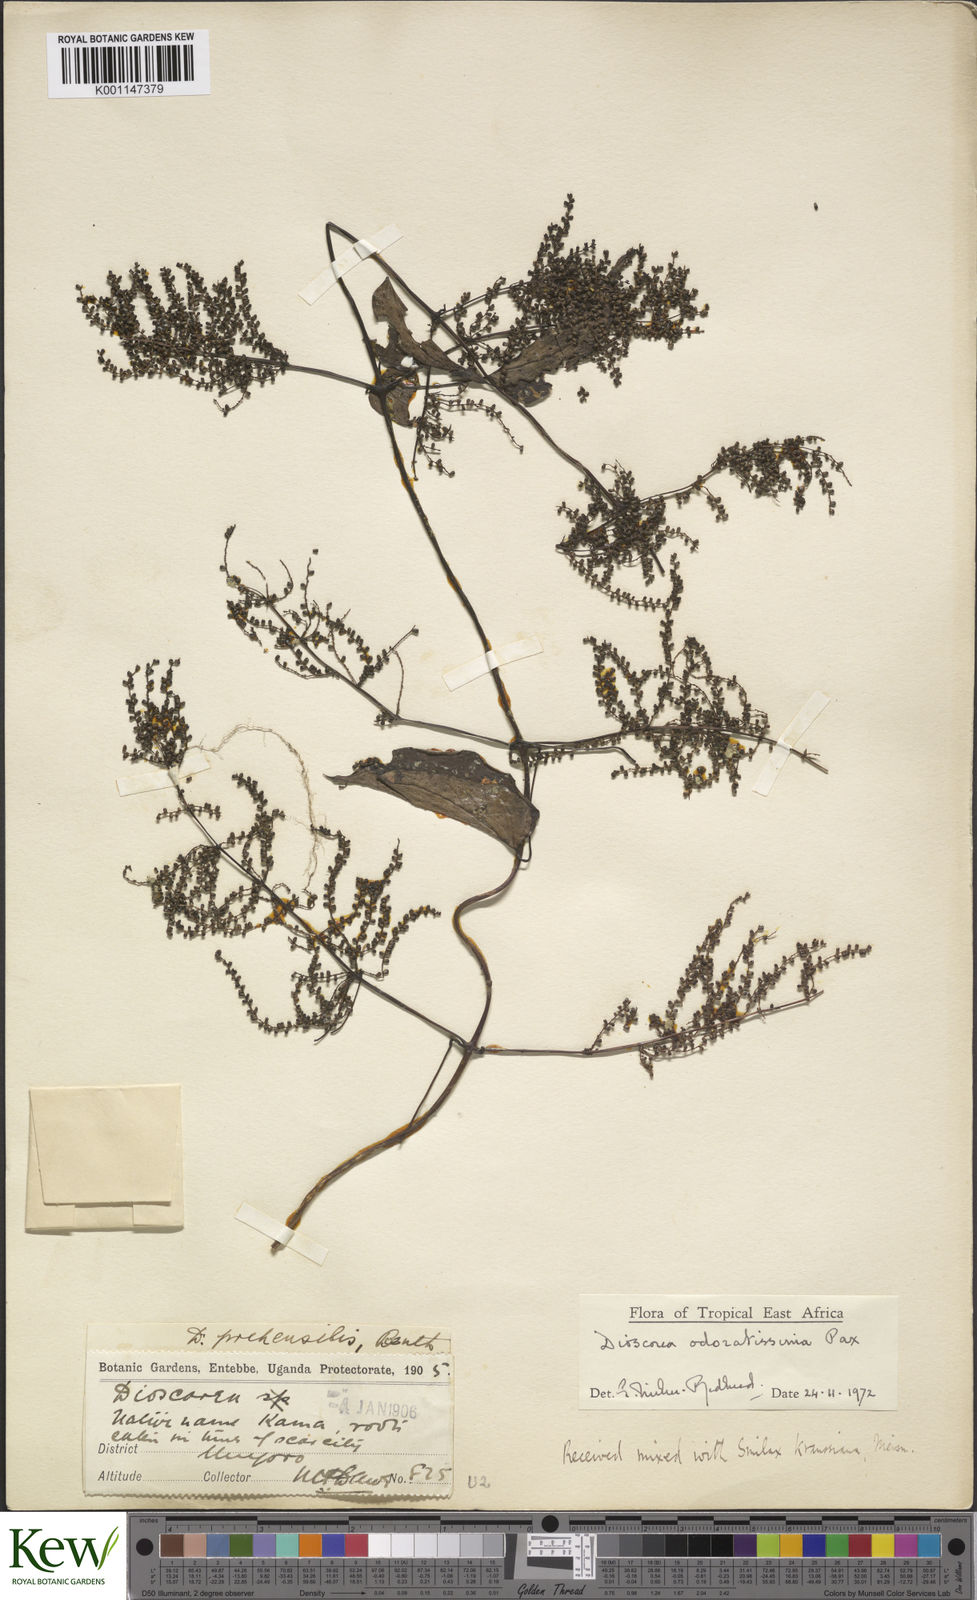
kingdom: Plantae
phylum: Tracheophyta
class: Liliopsida
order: Dioscoreales
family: Dioscoreaceae
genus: Dioscorea
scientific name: Dioscorea praehensilis
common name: Bush yam
